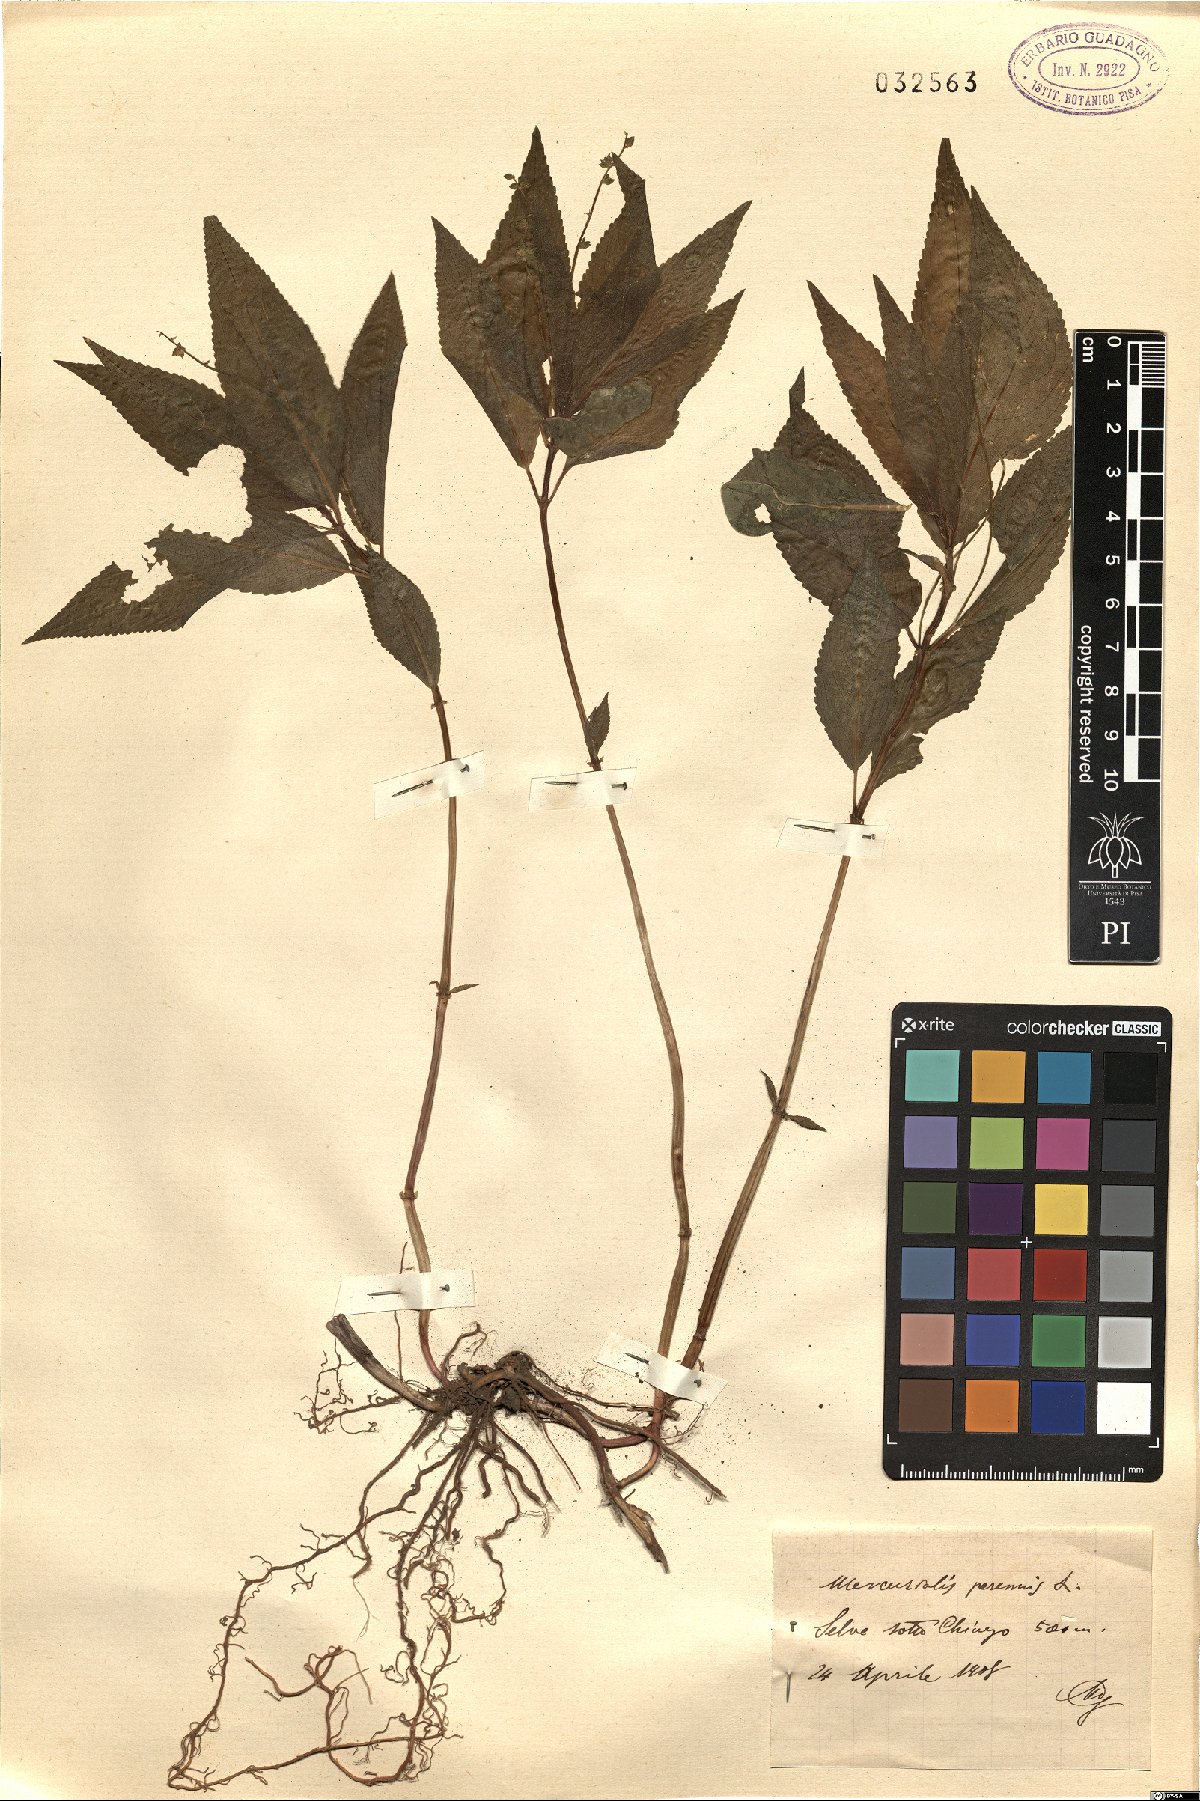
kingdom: Plantae
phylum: Tracheophyta
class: Magnoliopsida
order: Malpighiales
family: Euphorbiaceae
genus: Mercurialis
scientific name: Mercurialis perennis
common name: Dog mercury
